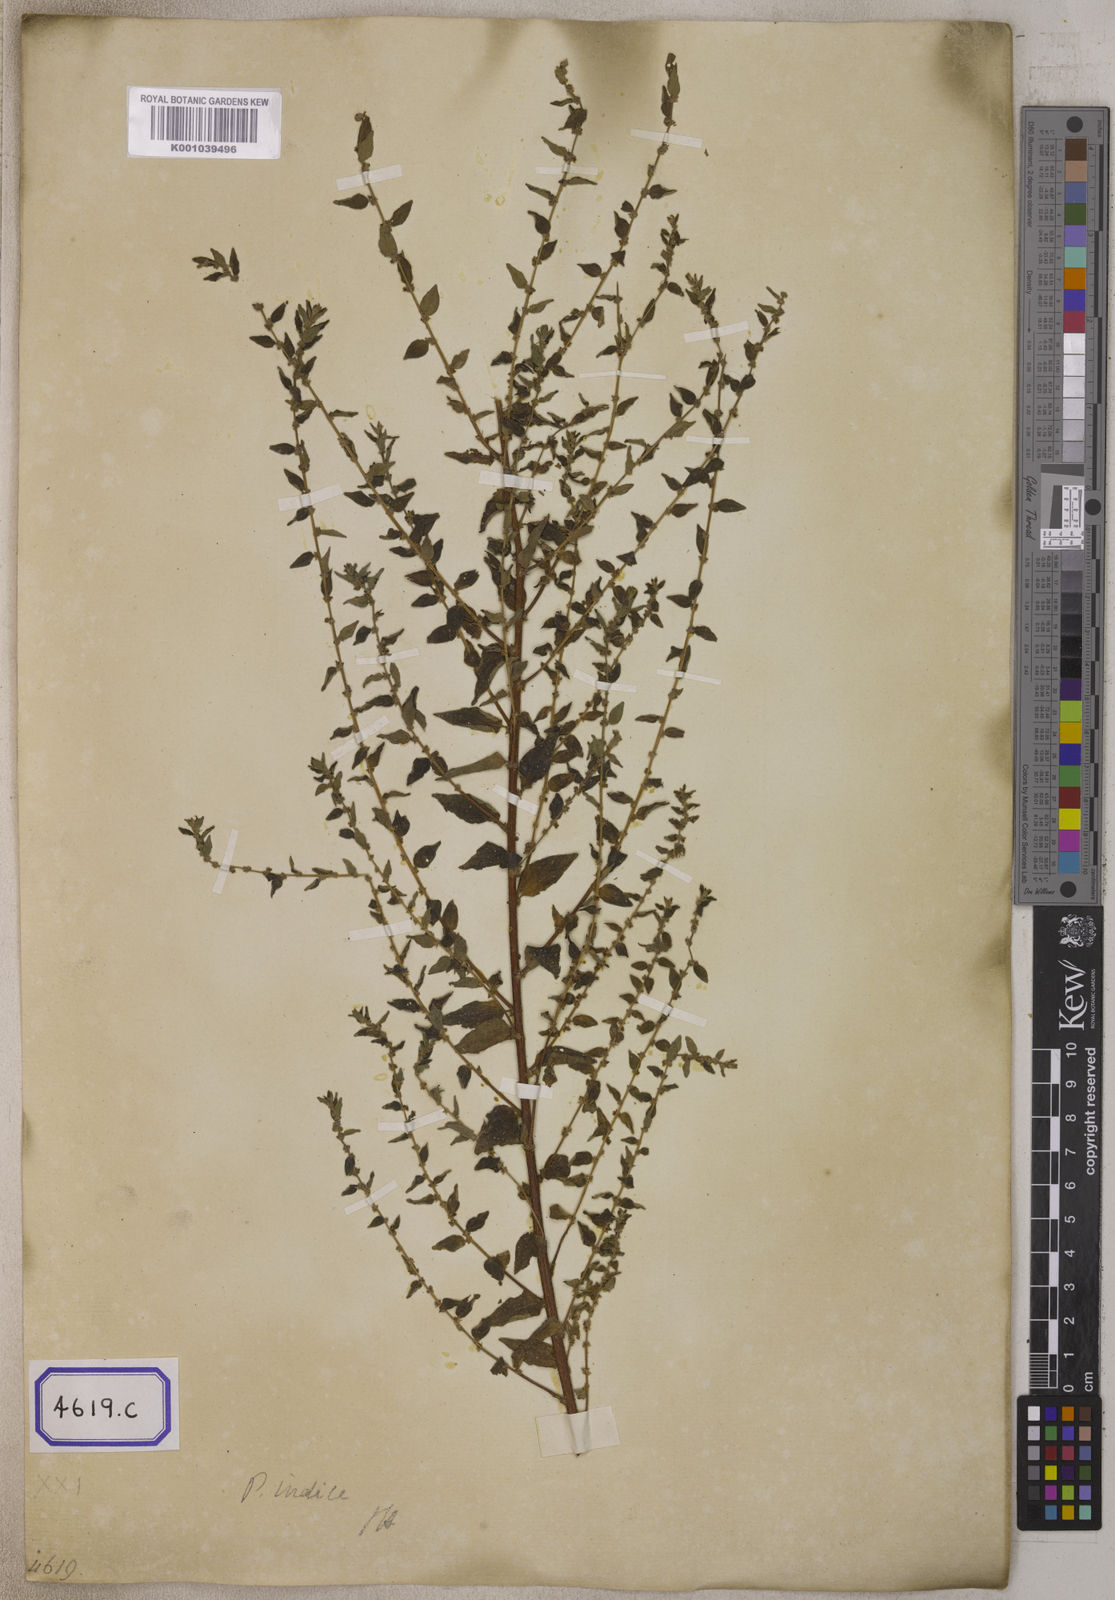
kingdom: Plantae
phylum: Tracheophyta
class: Magnoliopsida
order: Rosales
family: Urticaceae
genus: Pouzolzia
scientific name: Pouzolzia zeylanica
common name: Graceful pouzolzsbush
